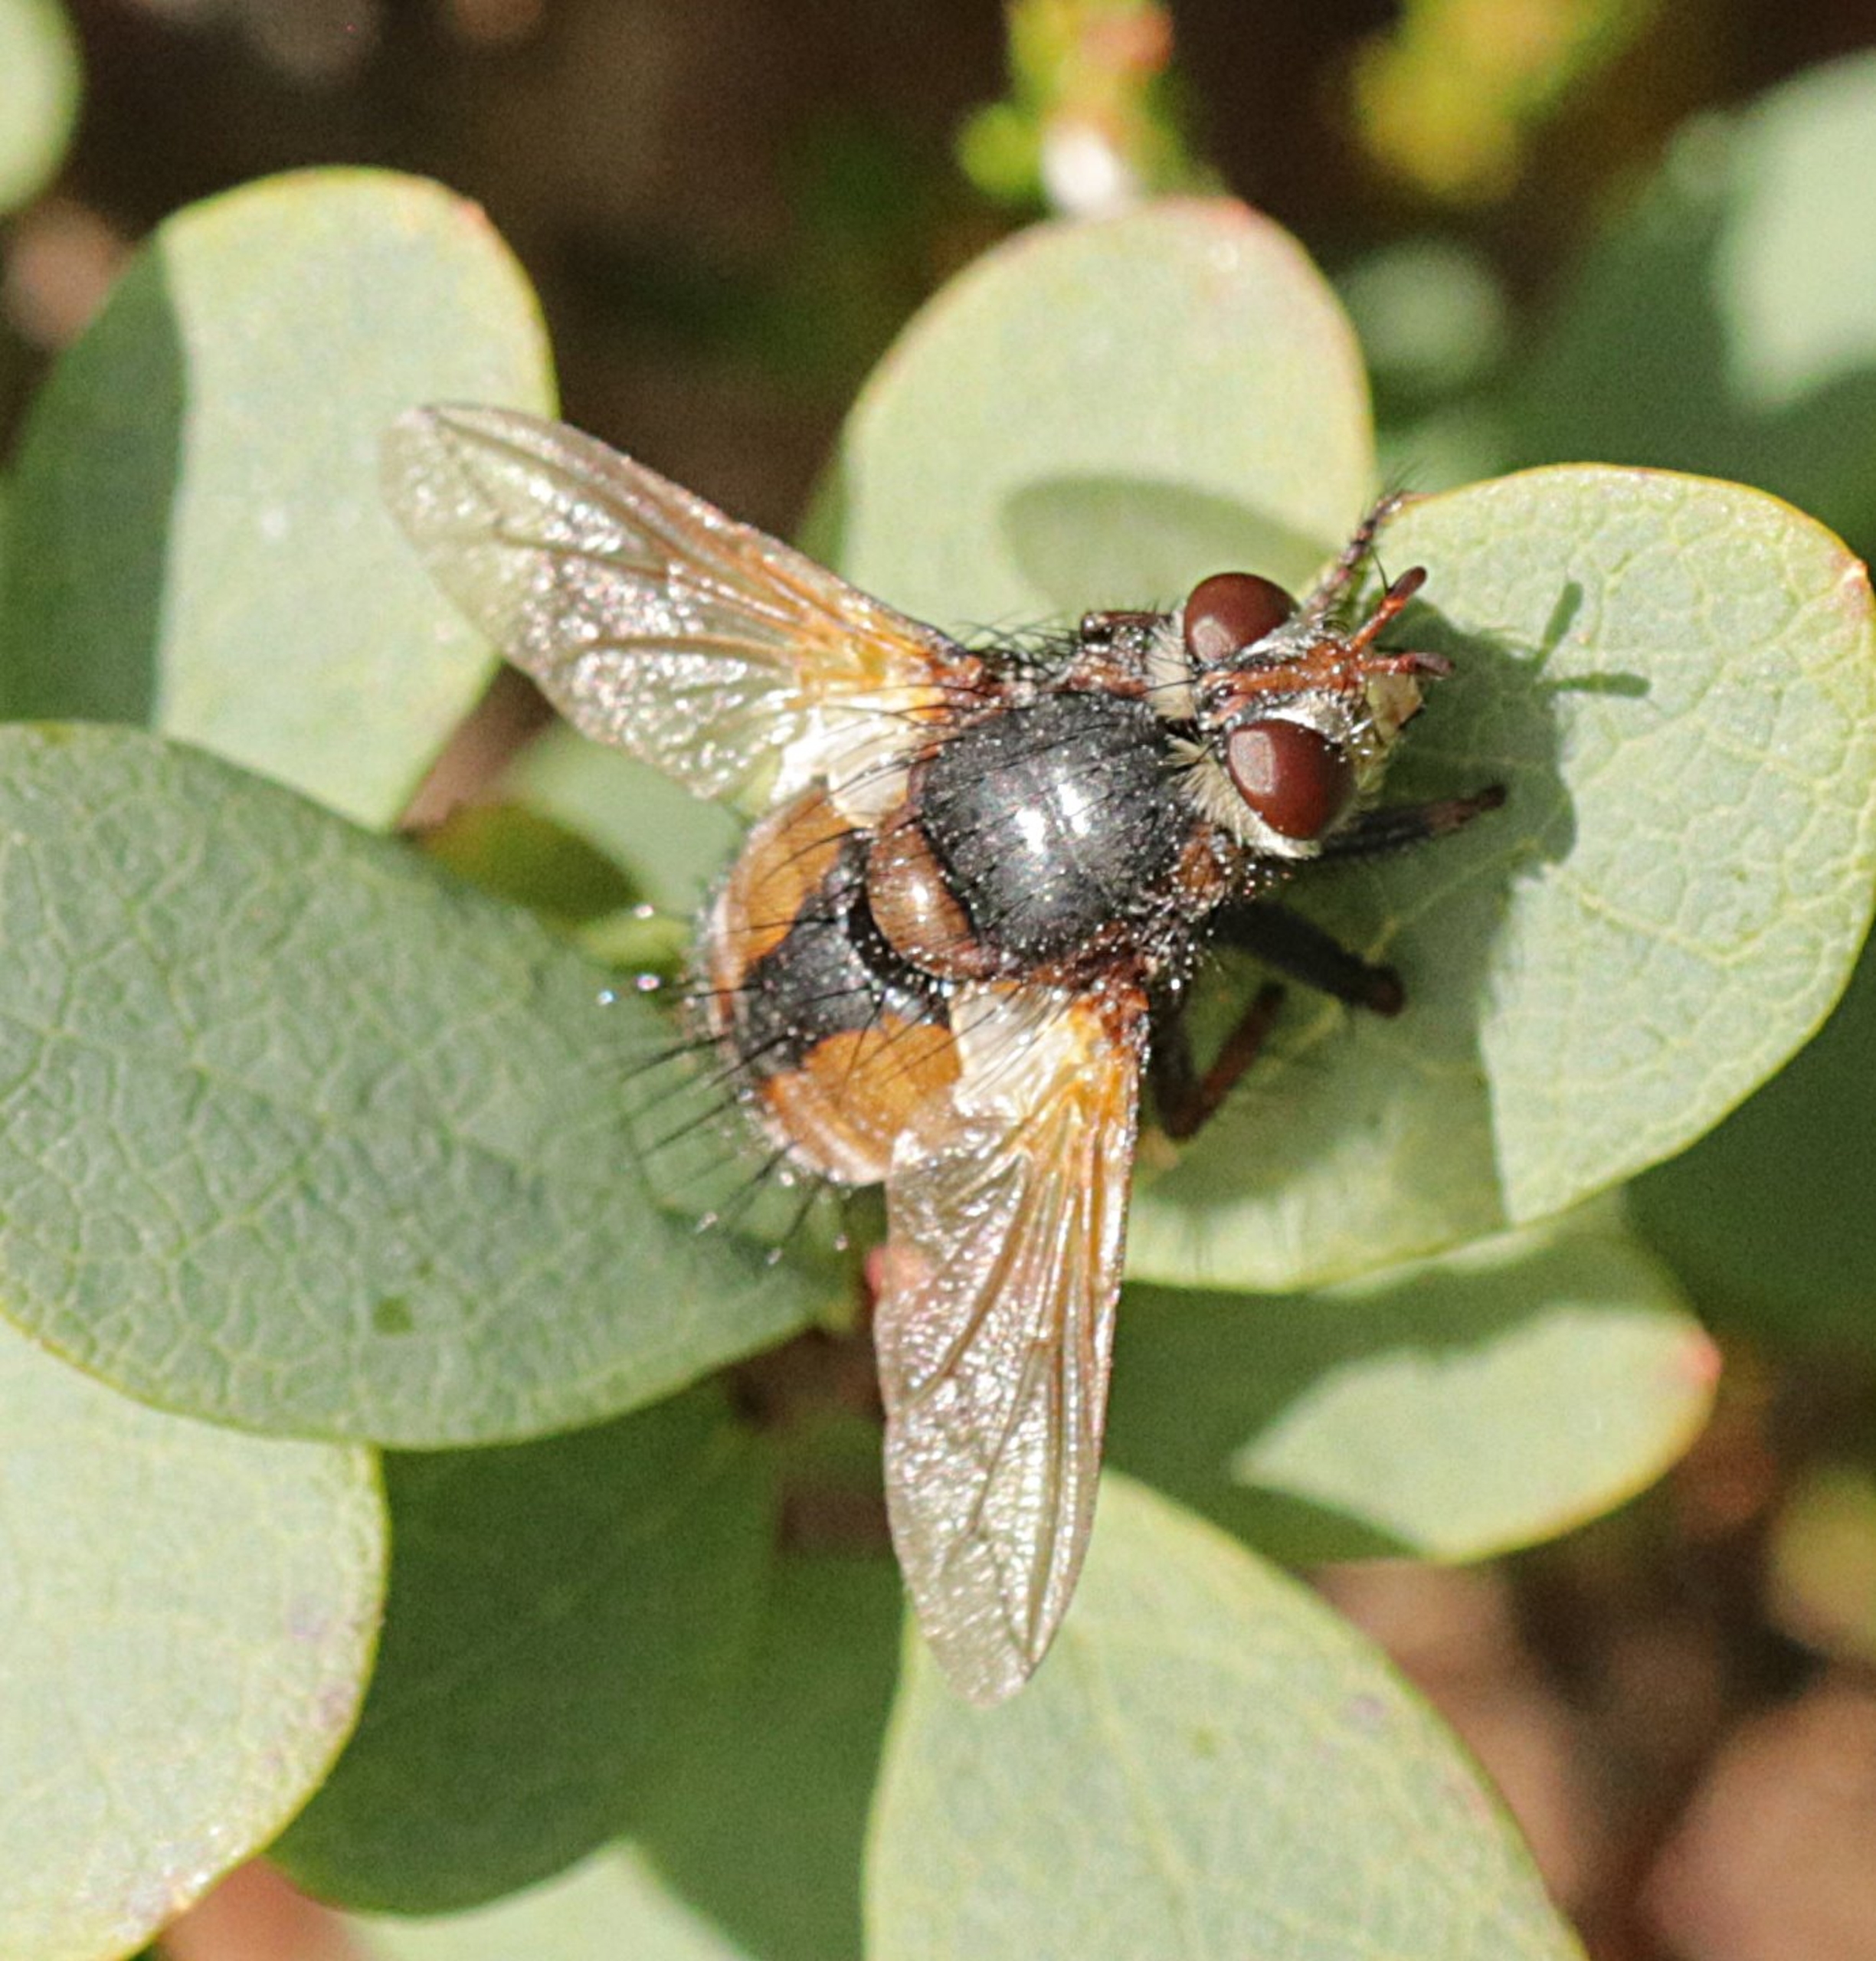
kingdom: Animalia
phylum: Arthropoda
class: Insecta
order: Diptera
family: Tachinidae
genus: Tachina
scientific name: Tachina fera
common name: Mellemfluen oskar
